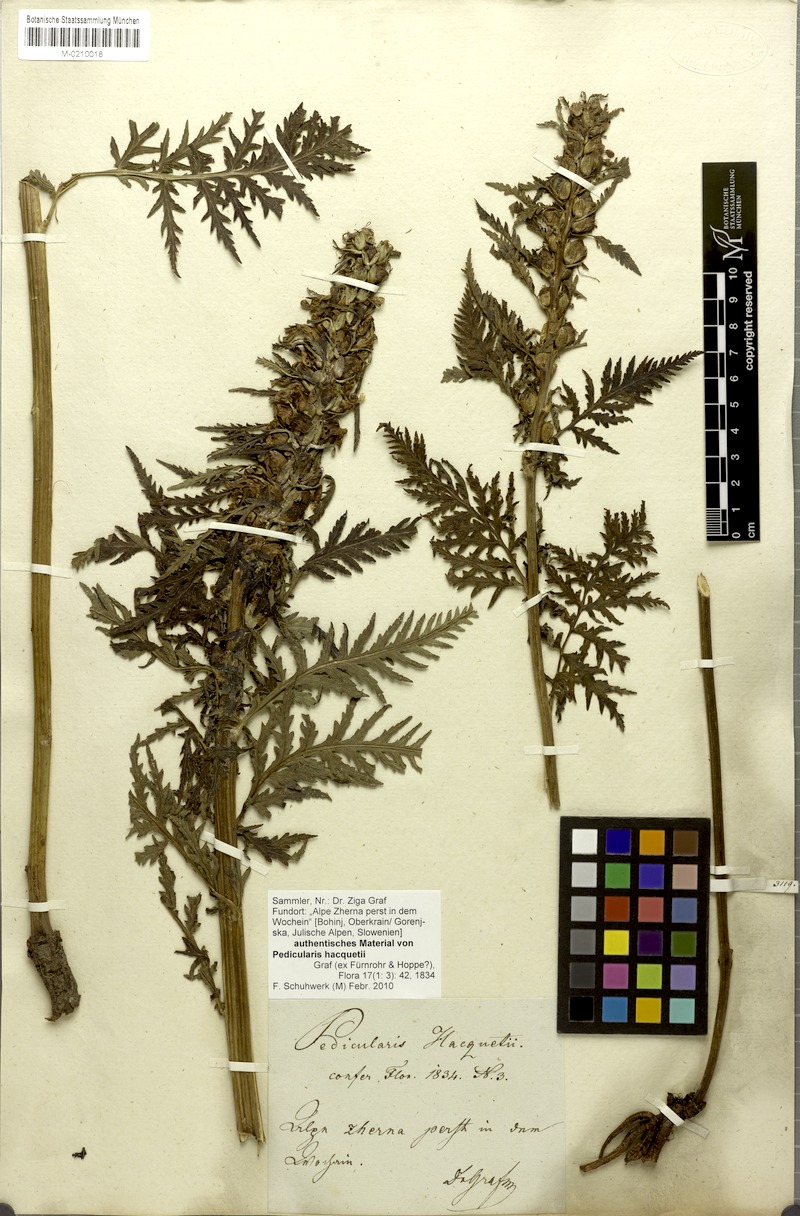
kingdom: Plantae
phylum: Tracheophyta
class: Magnoliopsida
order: Lamiales
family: Orobanchaceae
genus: Pedicularis
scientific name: Pedicularis hacquetii
